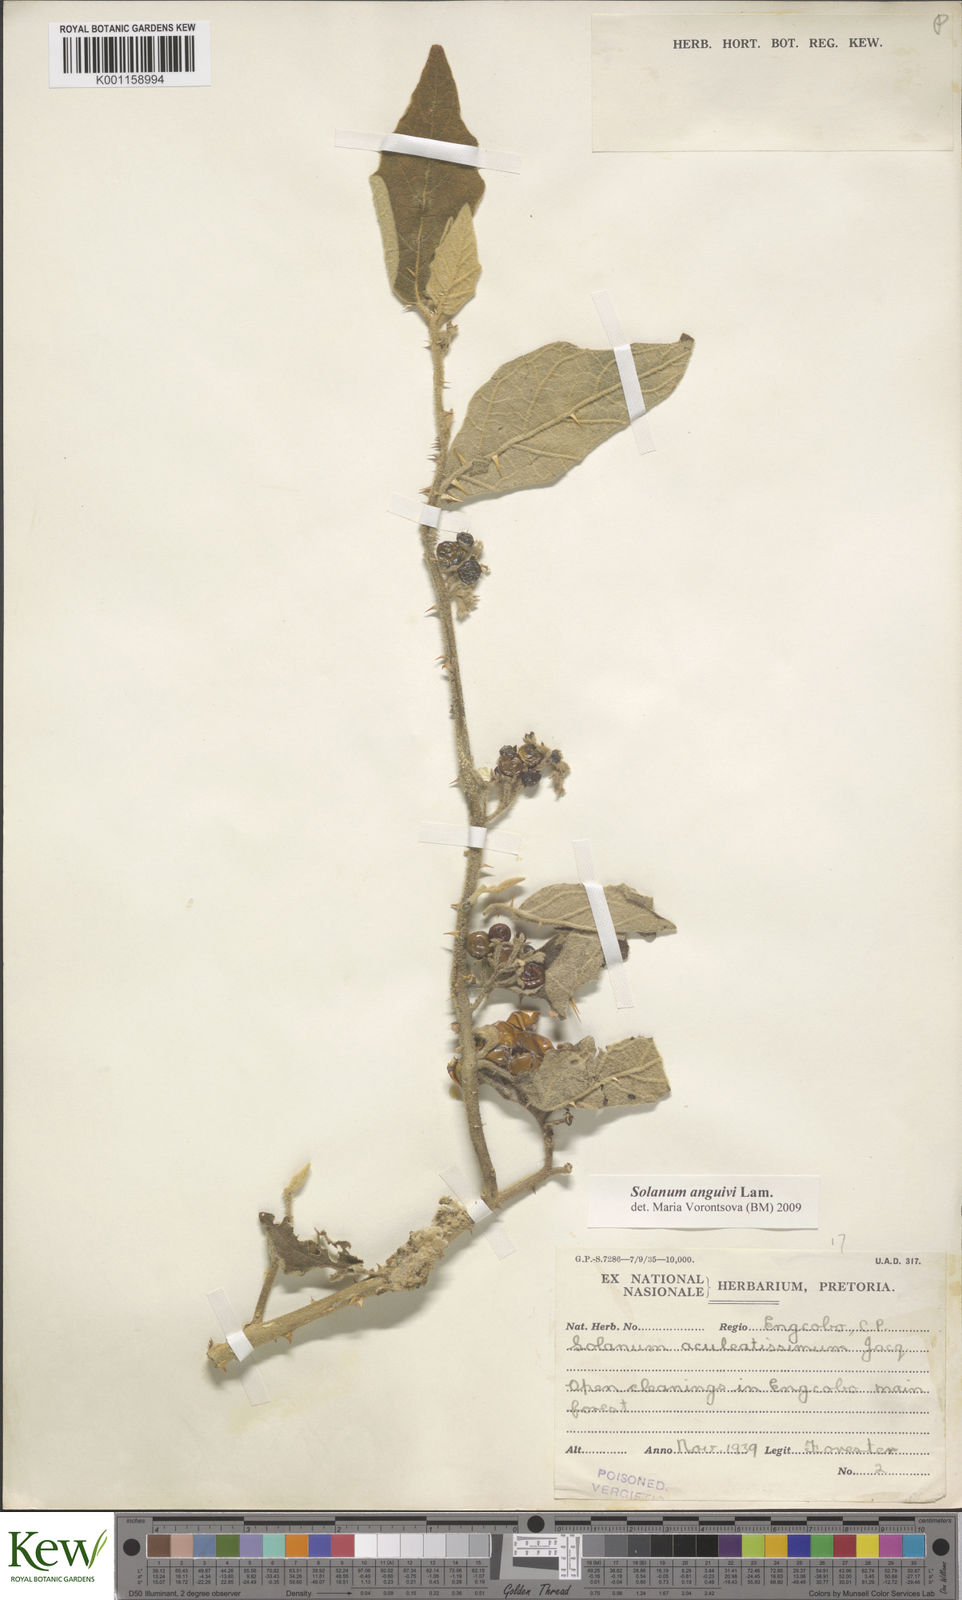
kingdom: Plantae
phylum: Tracheophyta
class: Magnoliopsida
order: Solanales
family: Solanaceae
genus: Solanum
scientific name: Solanum anguivi
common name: Forest bitterberry
